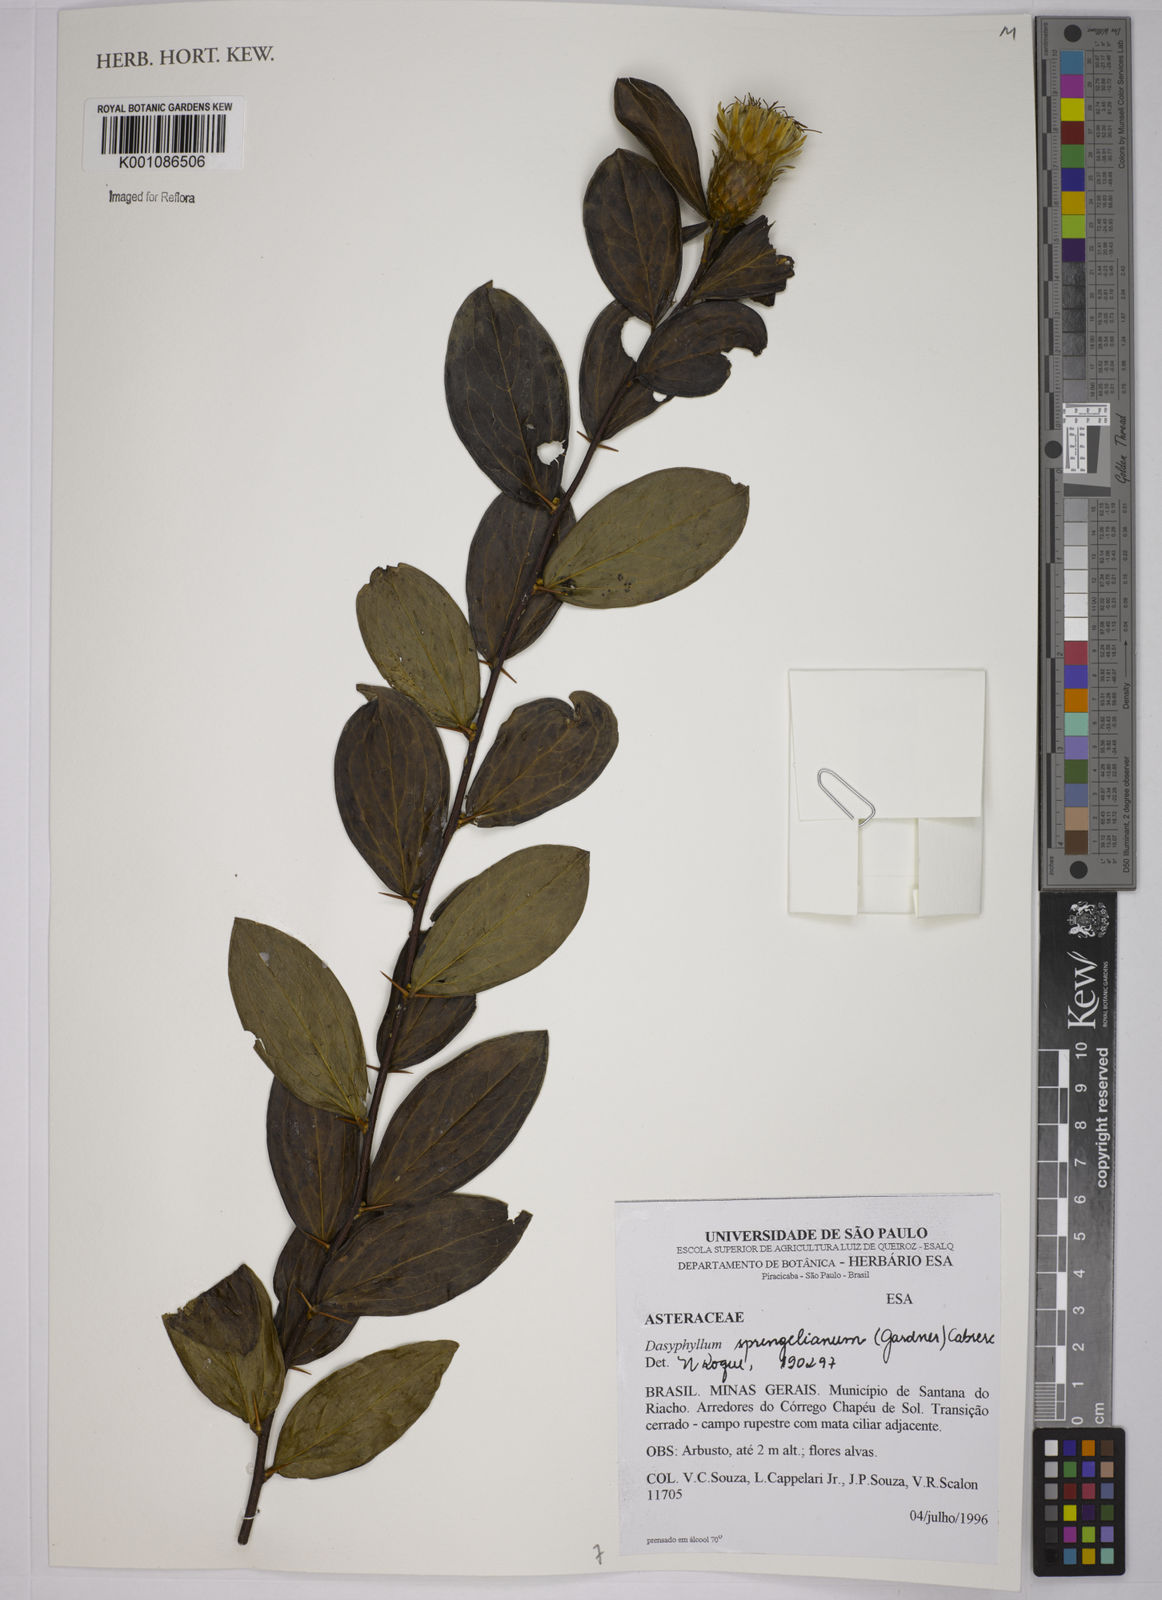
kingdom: Plantae
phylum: Tracheophyta
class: Magnoliopsida
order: Asterales
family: Asteraceae
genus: Dasyphyllum
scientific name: Dasyphyllum sprengelianum
